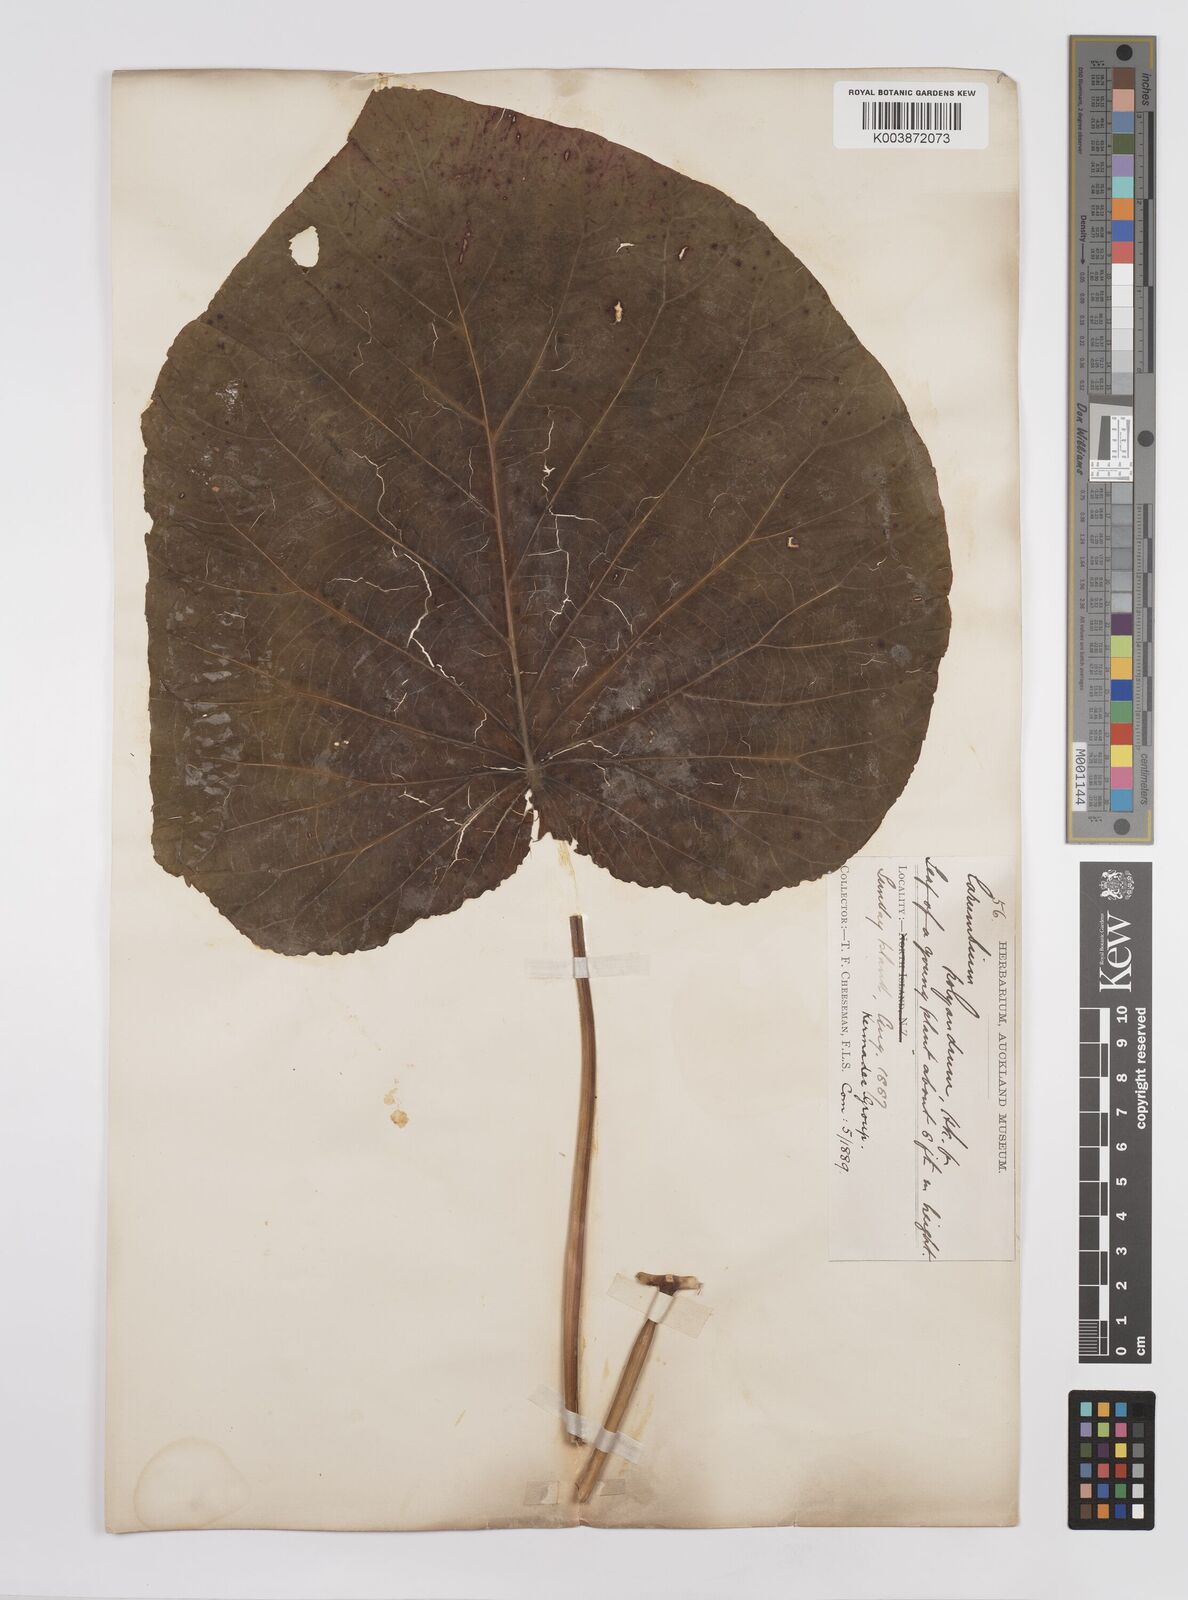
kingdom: Plantae
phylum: Tracheophyta
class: Magnoliopsida
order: Malpighiales
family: Euphorbiaceae
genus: Homalanthus
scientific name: Homalanthus polyandrus
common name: Kermadec poplar
